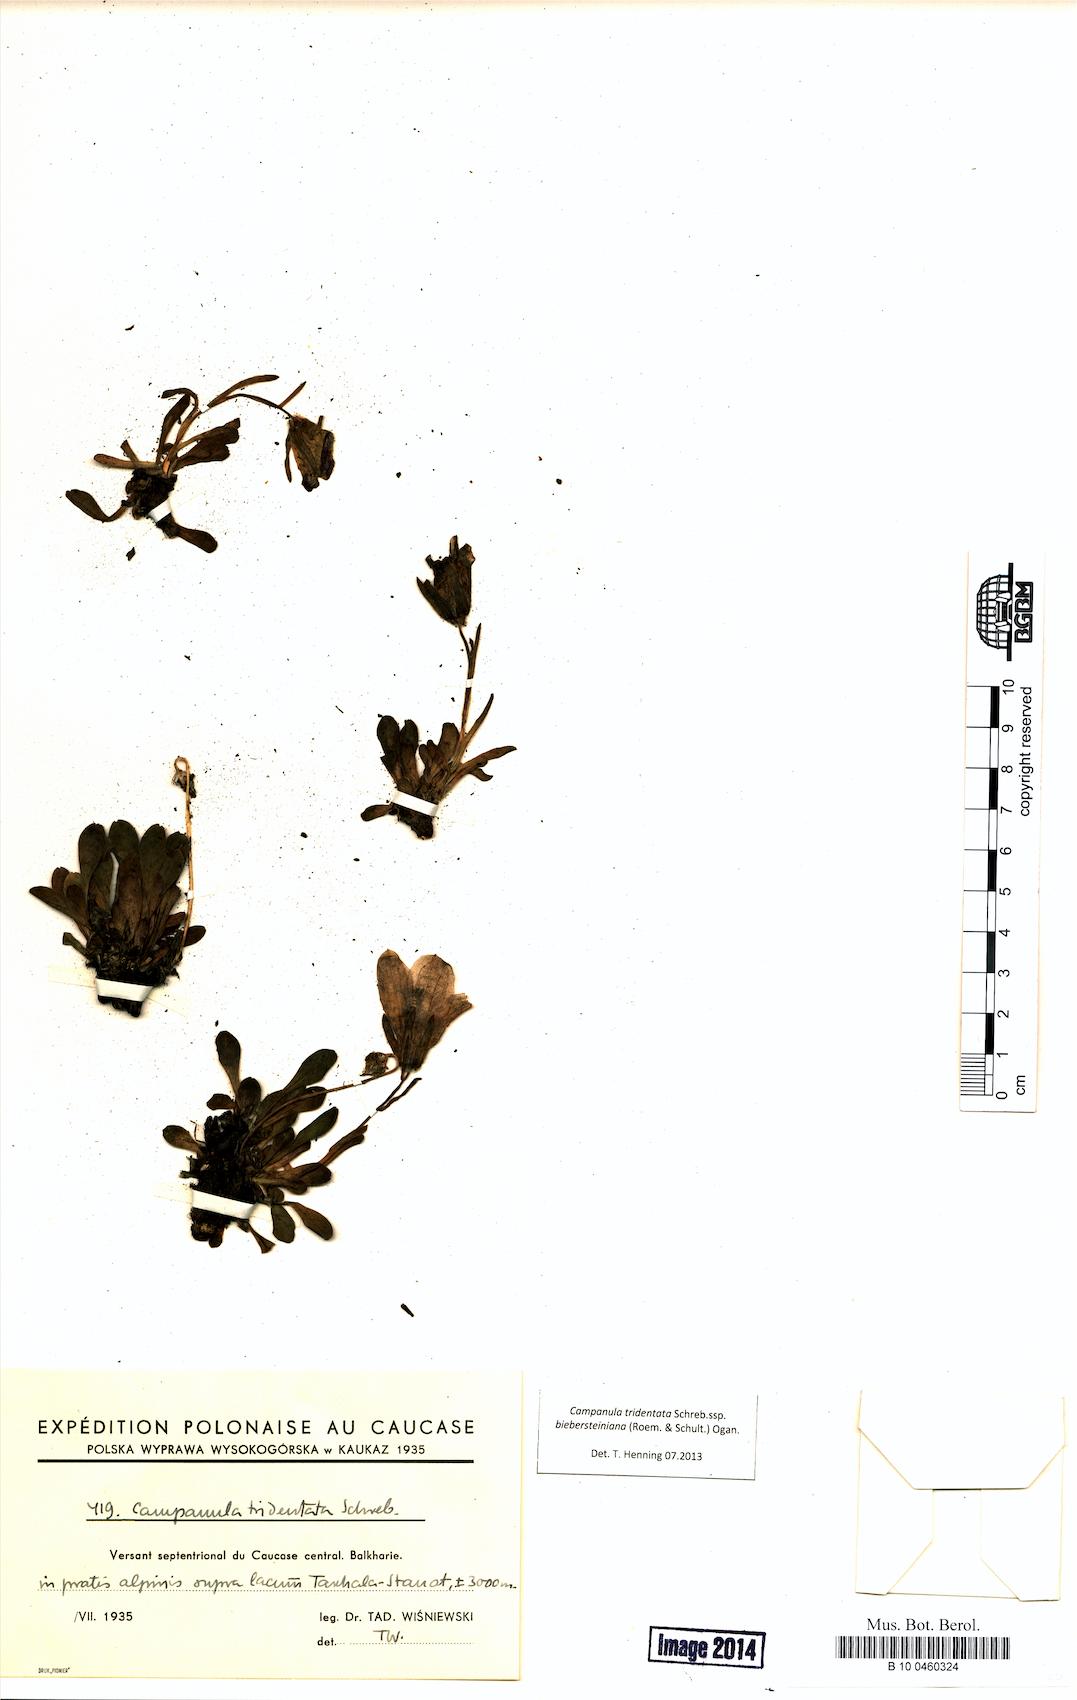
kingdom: Plantae
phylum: Tracheophyta
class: Magnoliopsida
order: Asterales
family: Campanulaceae
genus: Campanula
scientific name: Campanula tridentata
